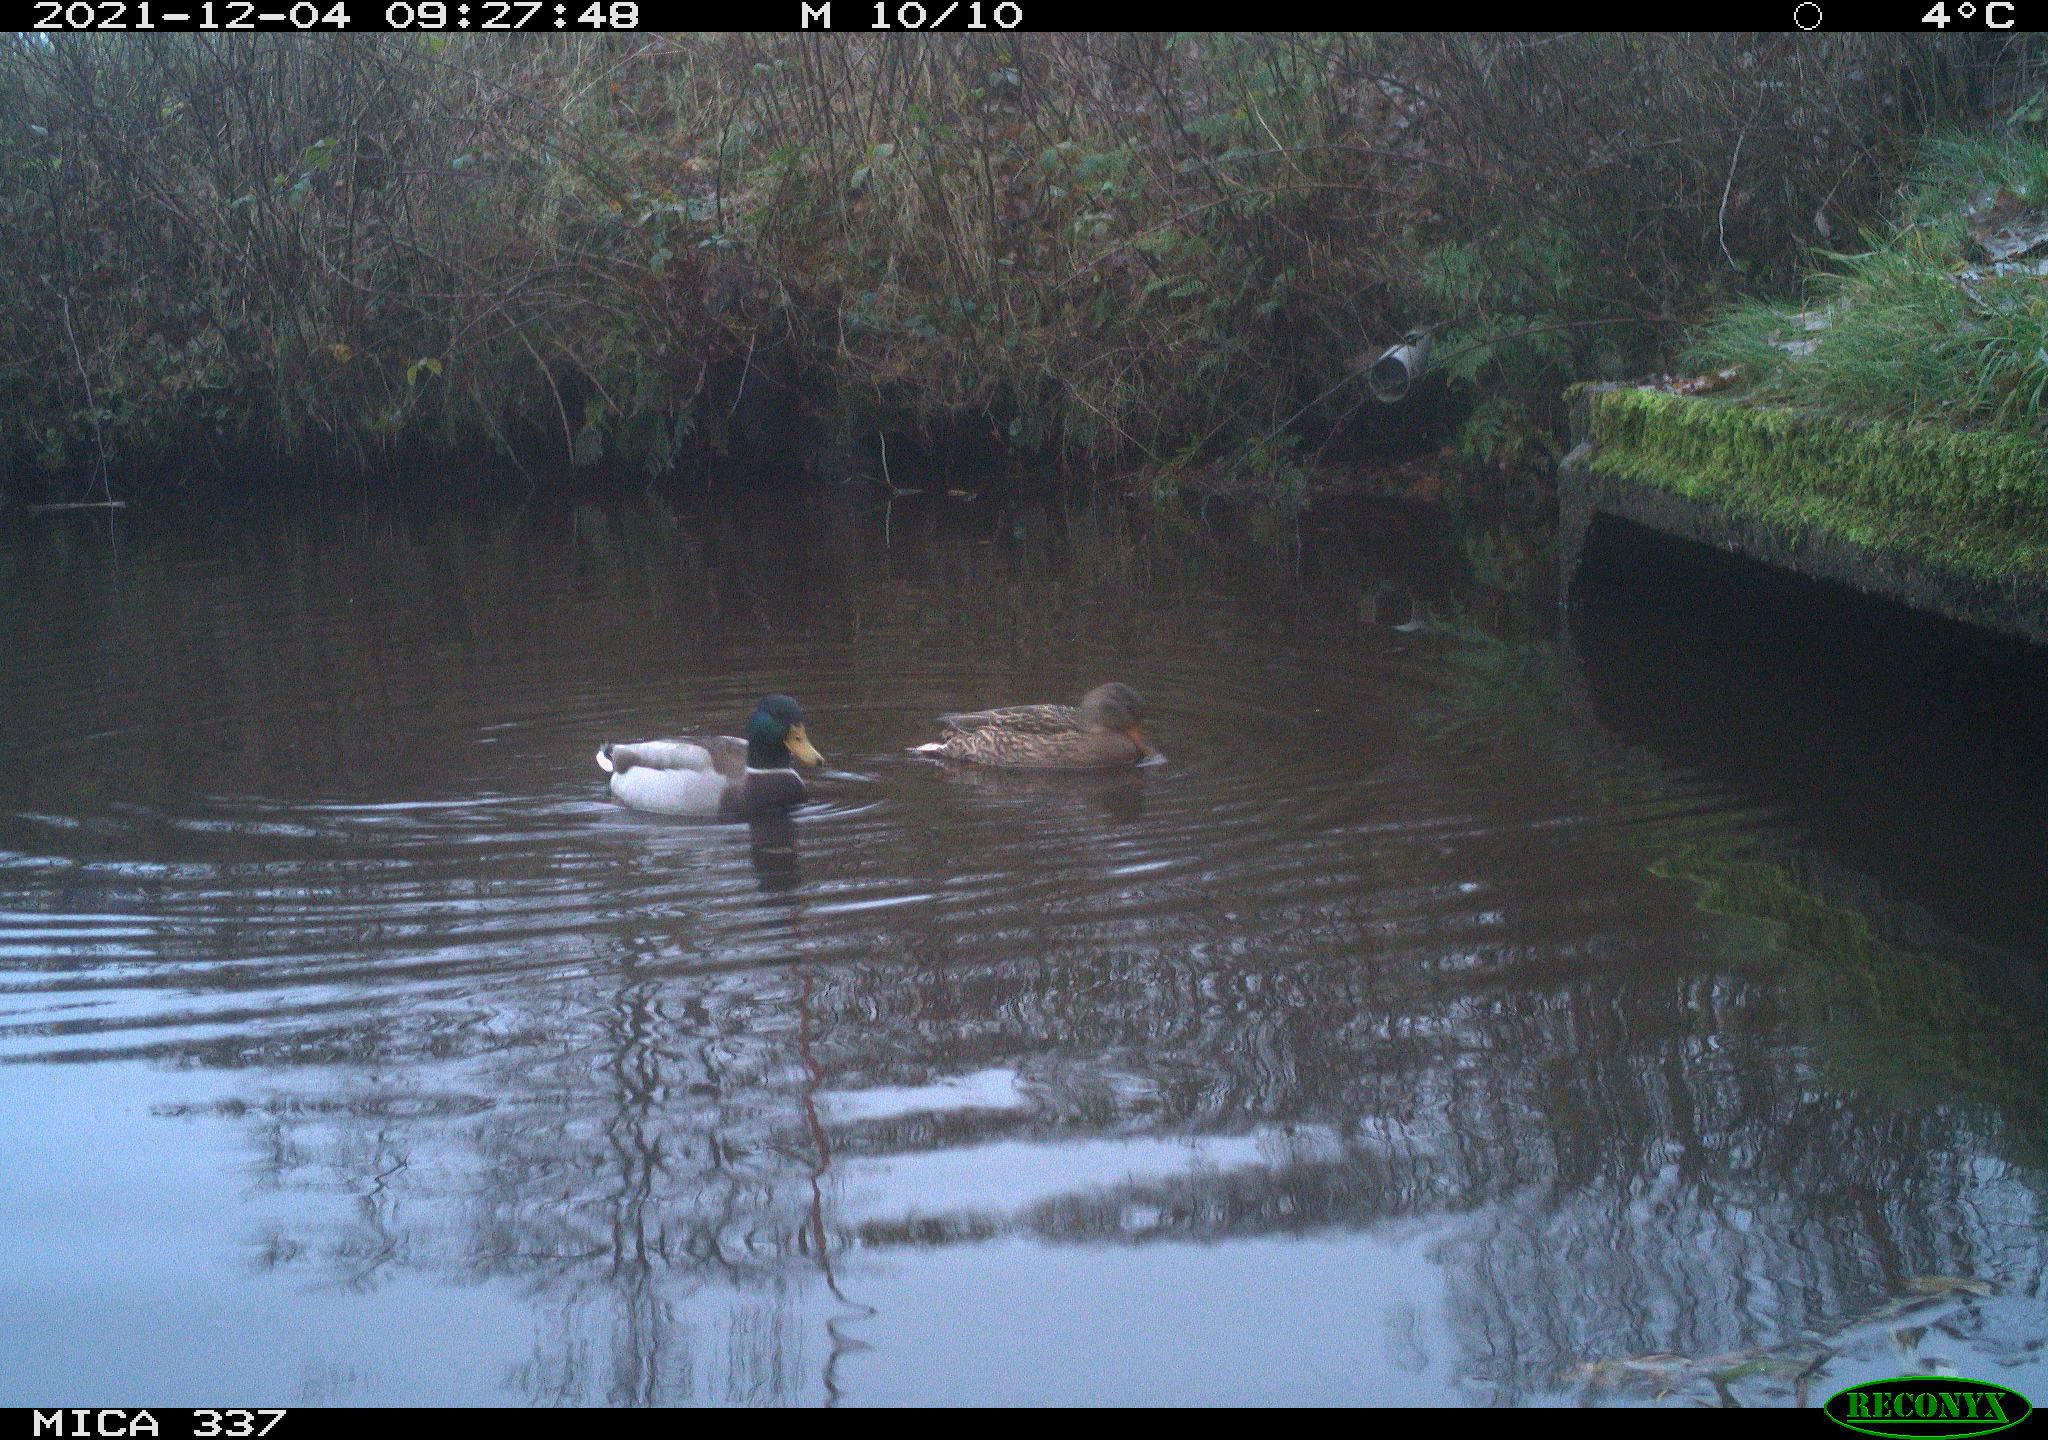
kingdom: Animalia
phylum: Chordata
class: Aves
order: Anseriformes
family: Anatidae
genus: Anas
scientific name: Anas platyrhynchos
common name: Mallard
